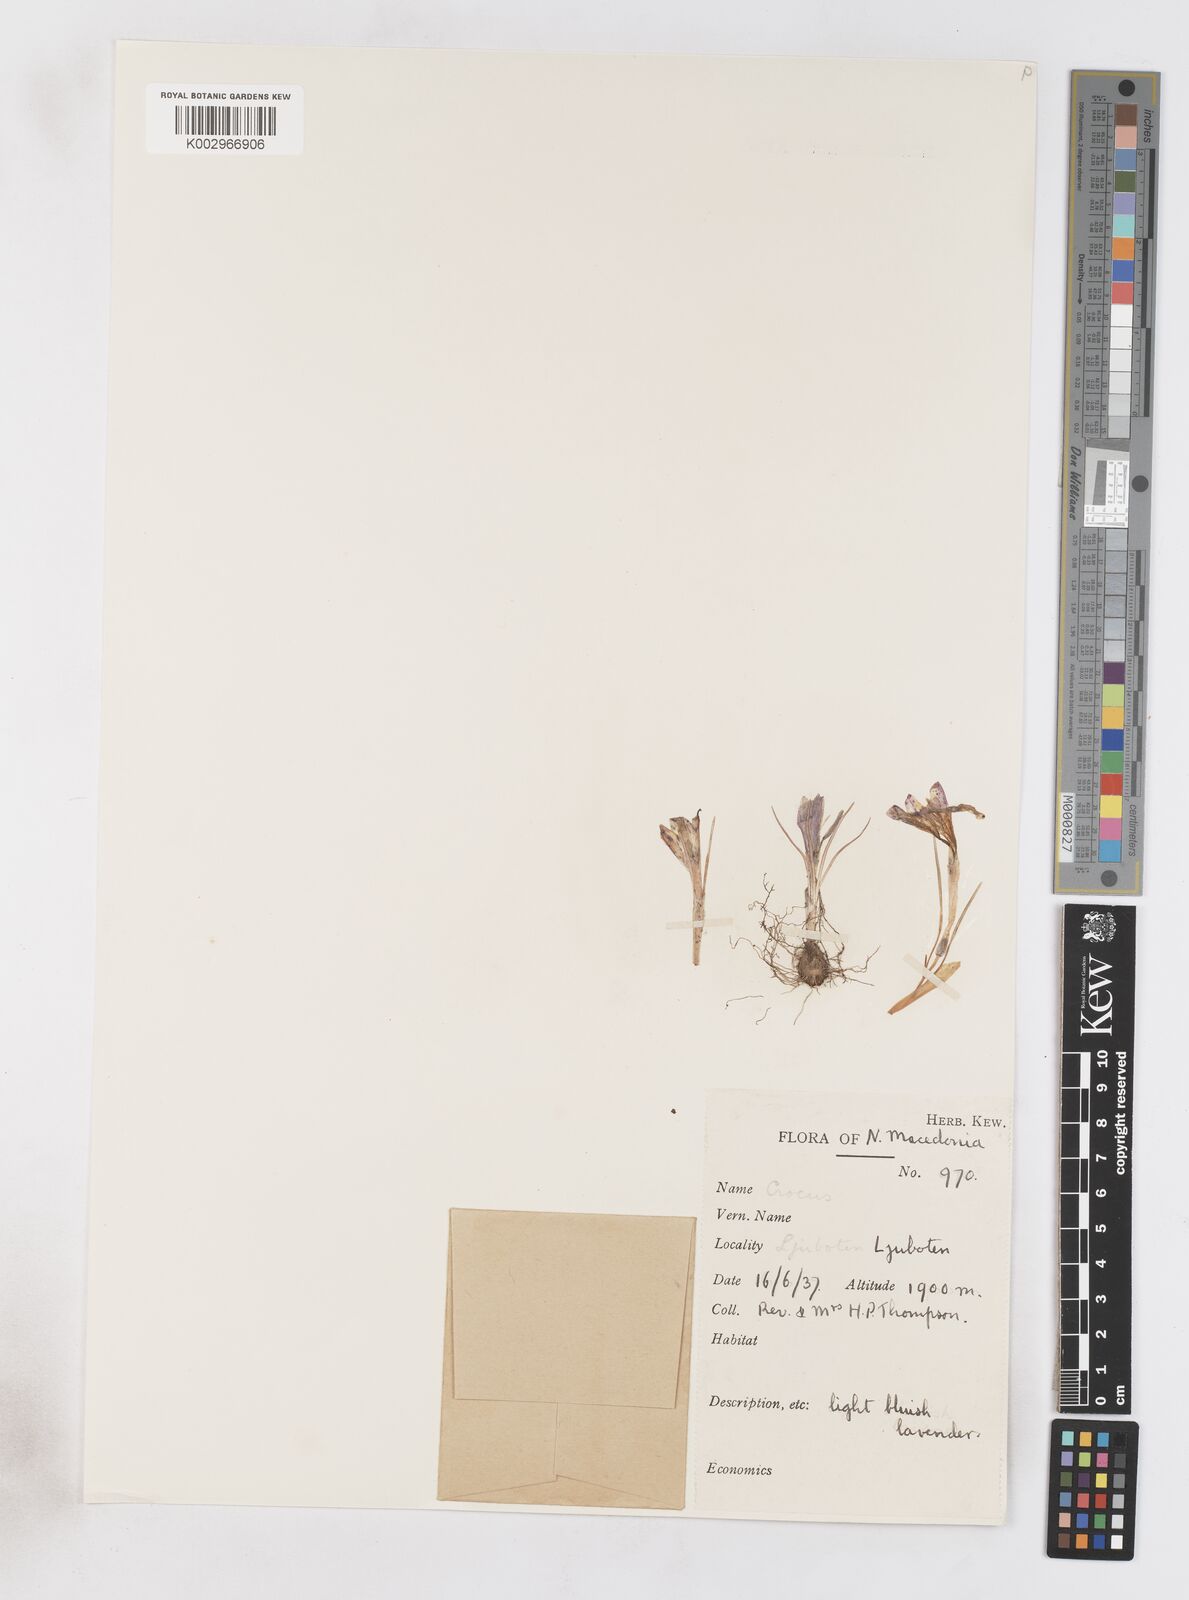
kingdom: Plantae
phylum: Tracheophyta
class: Liliopsida
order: Asparagales
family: Iridaceae
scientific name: Iridaceae
